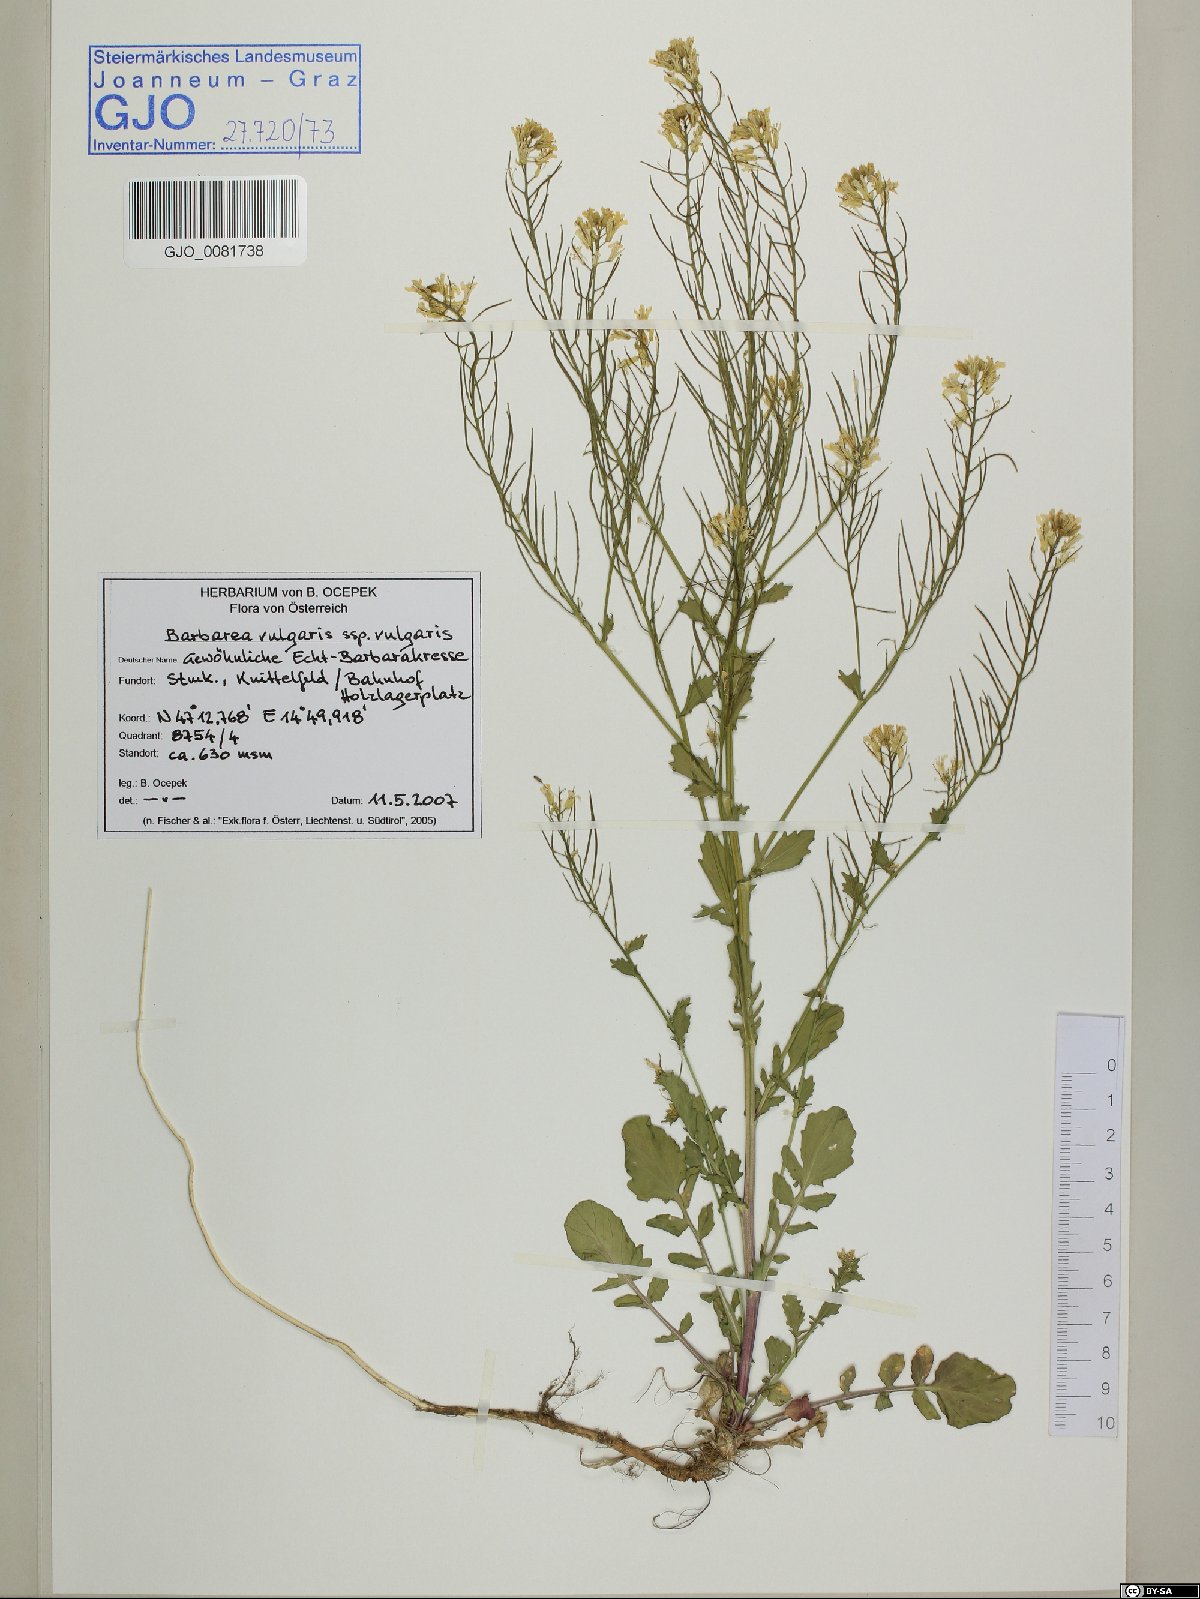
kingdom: Plantae
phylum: Tracheophyta
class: Magnoliopsida
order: Brassicales
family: Brassicaceae
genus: Barbarea
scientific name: Barbarea vulgaris
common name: Cressy-greens
